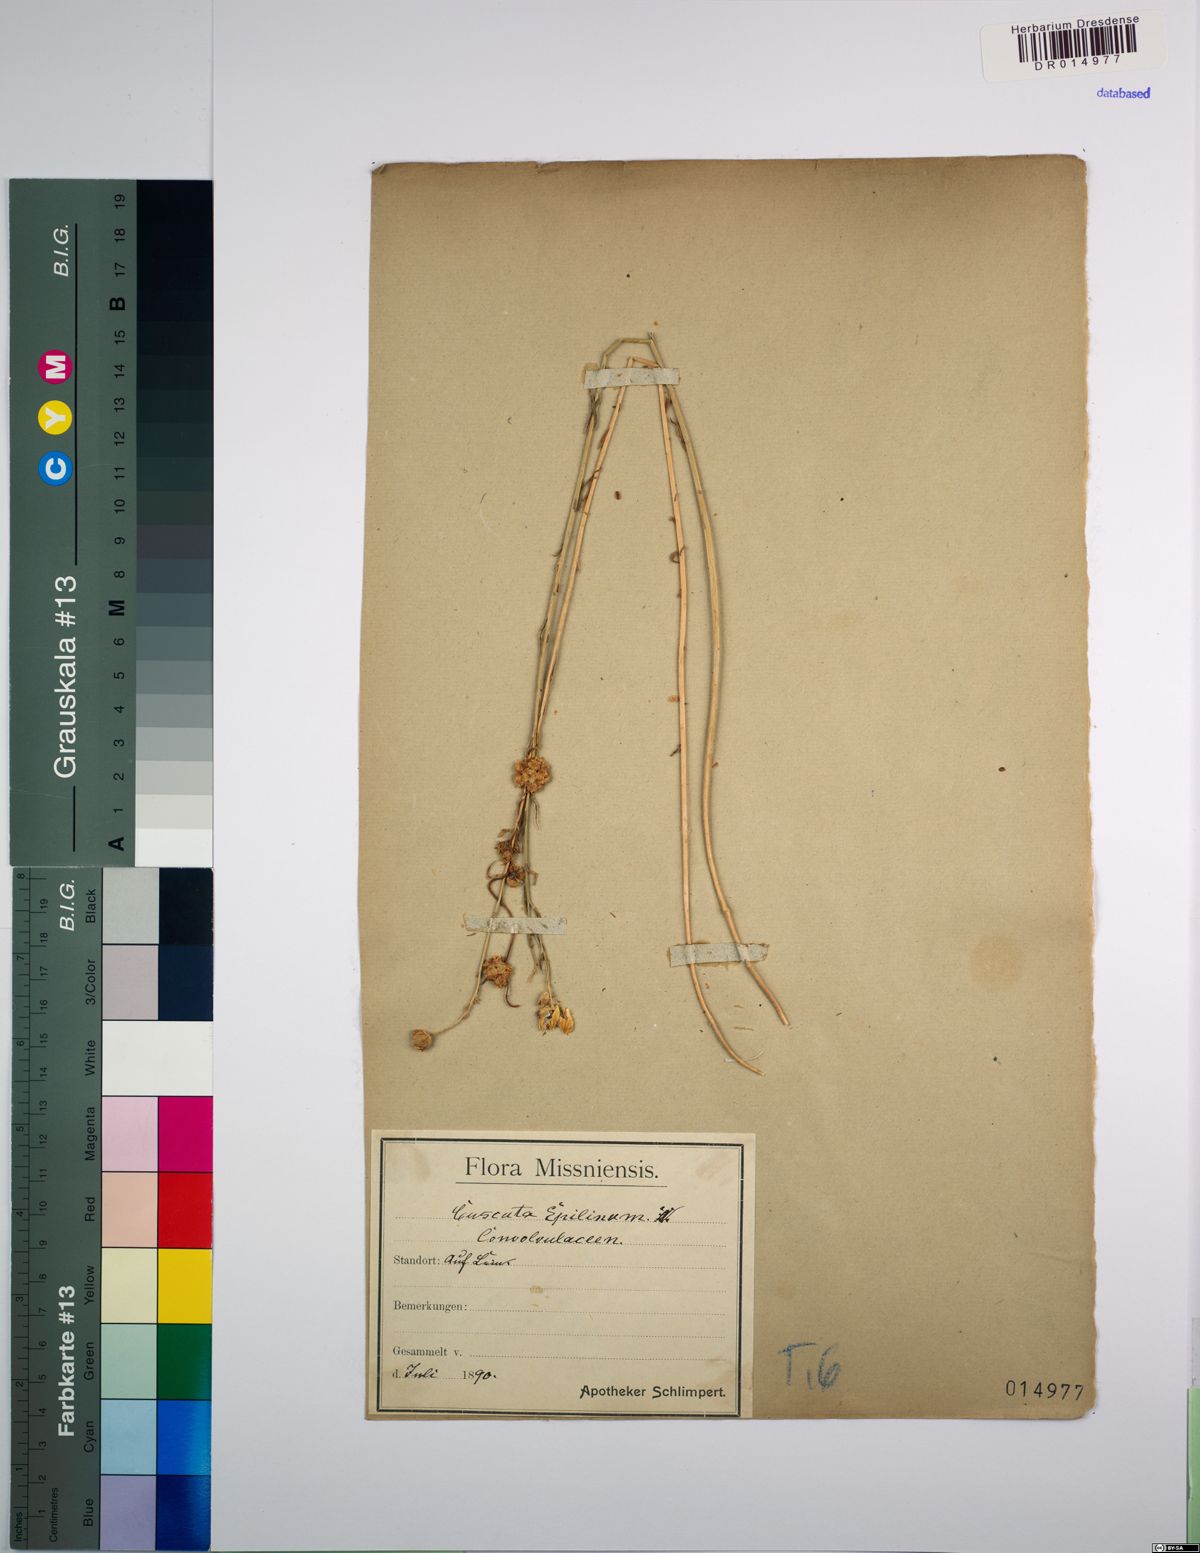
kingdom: Plantae
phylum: Tracheophyta
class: Magnoliopsida
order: Solanales
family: Convolvulaceae
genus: Cuscuta
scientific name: Cuscuta epilinum
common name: Flax dodder
